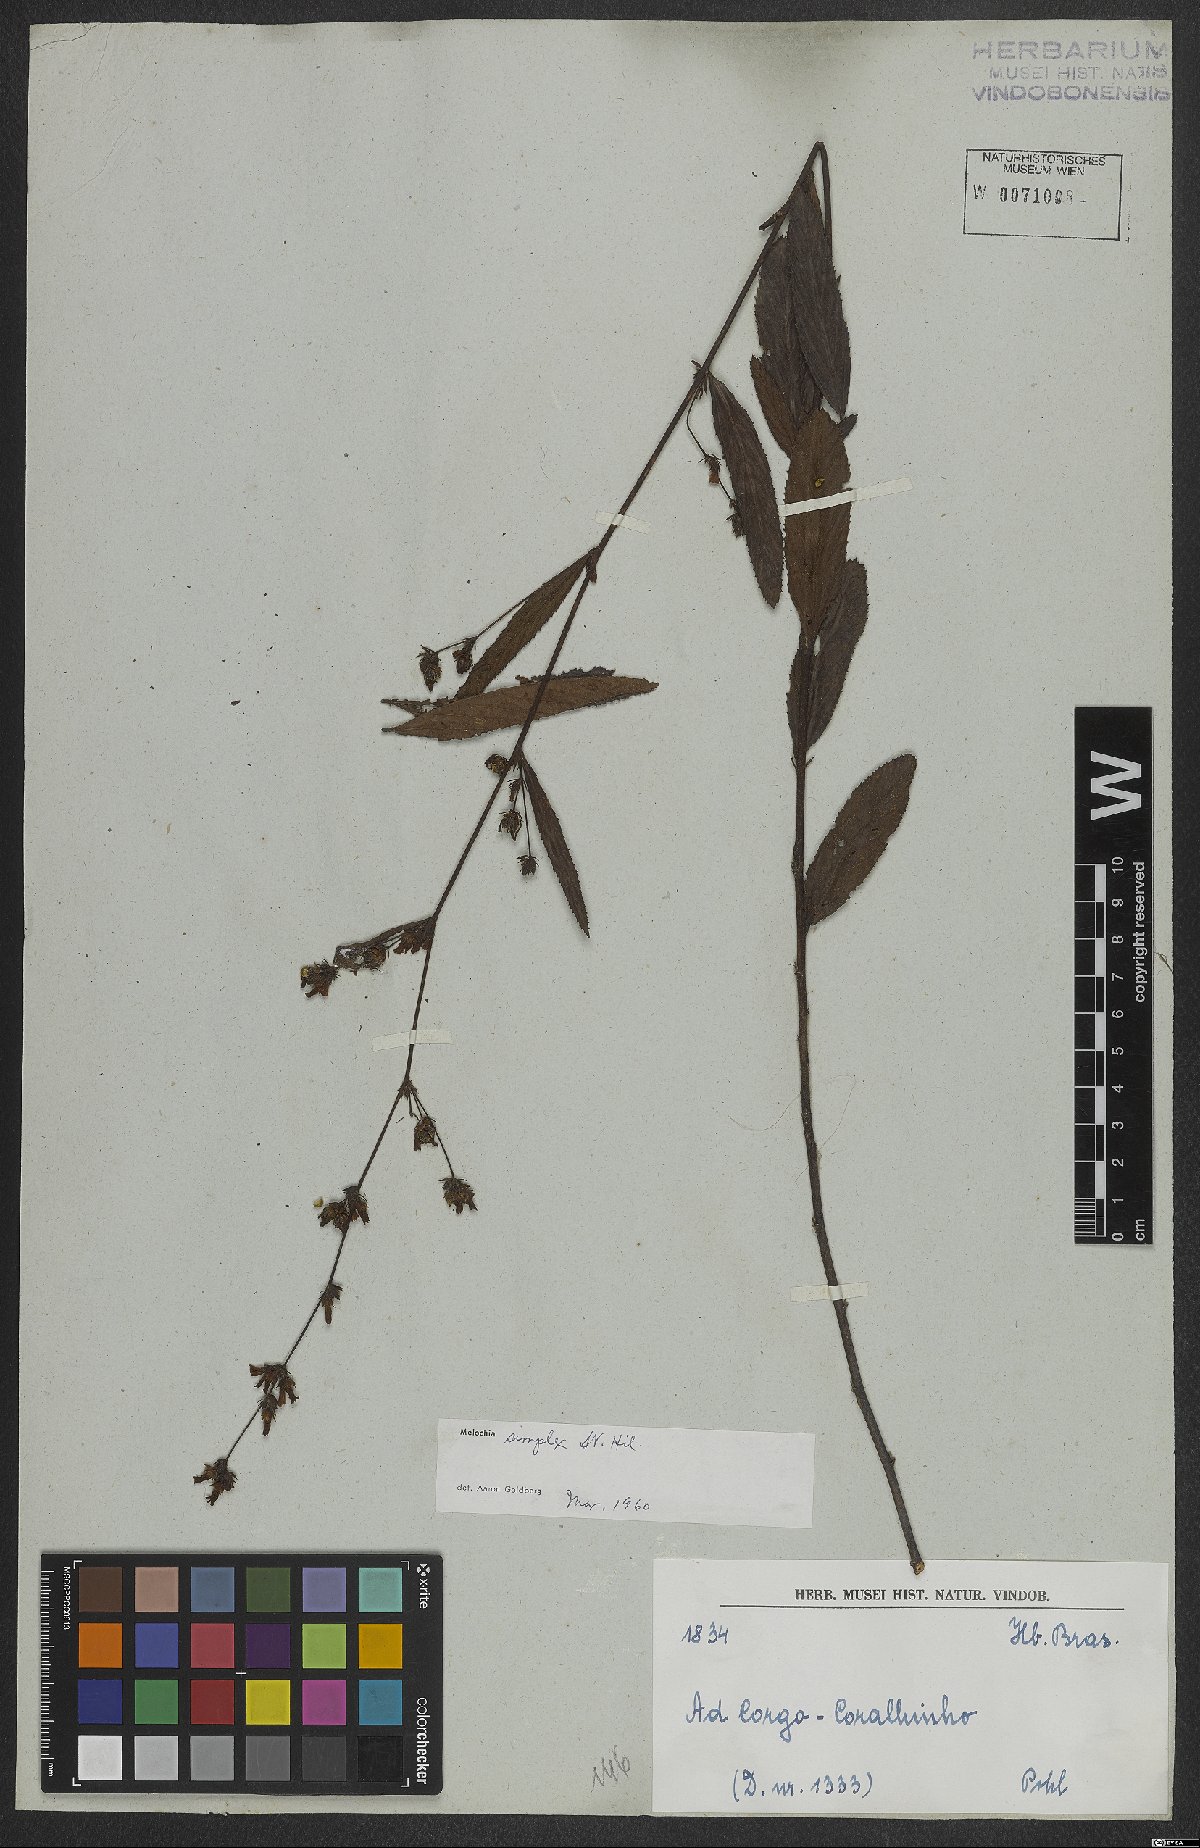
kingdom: Plantae
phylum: Tracheophyta
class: Magnoliopsida
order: Malvales
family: Malvaceae
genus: Melochia
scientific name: Melochia simplex
